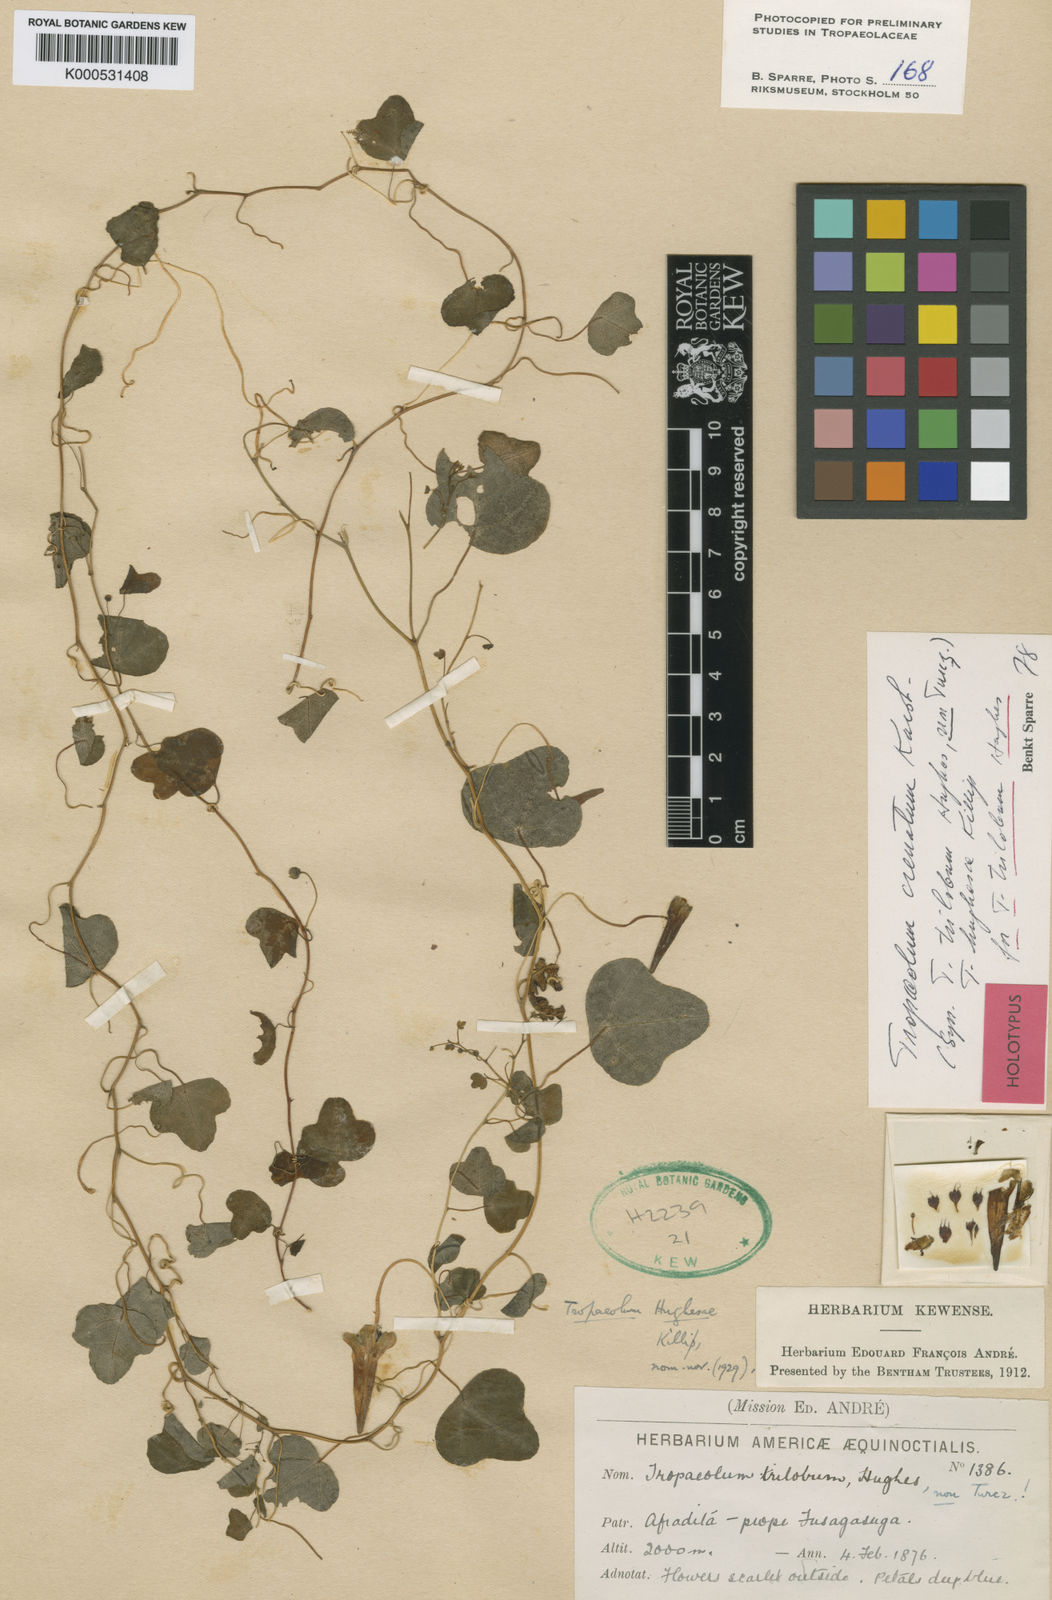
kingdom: Plantae
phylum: Tracheophyta
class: Magnoliopsida
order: Brassicales
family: Tropaeolaceae
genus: Tropaeolum
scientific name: Tropaeolum trilobum
